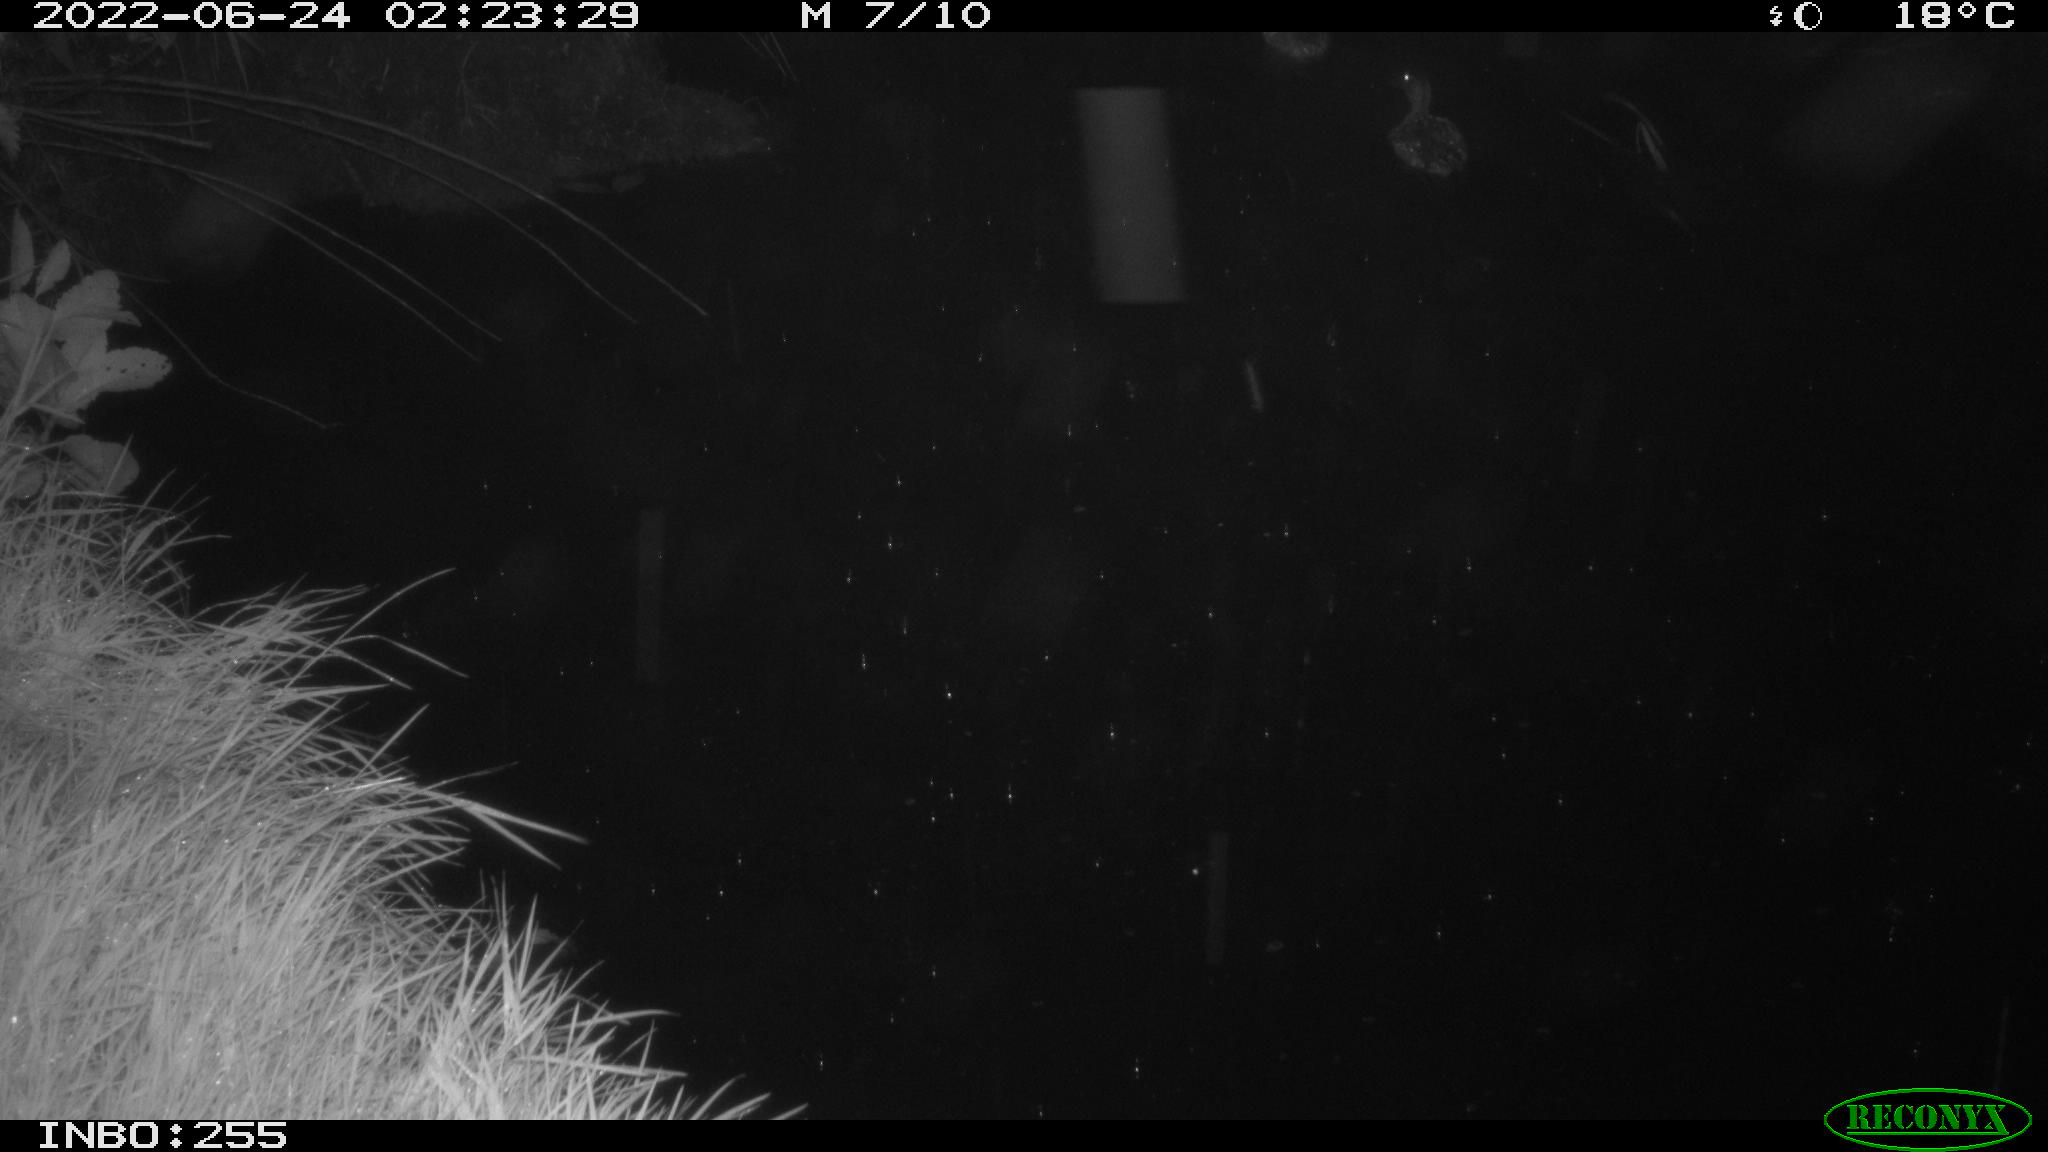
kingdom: Animalia
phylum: Chordata
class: Aves
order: Anseriformes
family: Anatidae
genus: Anas
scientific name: Anas platyrhynchos
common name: Mallard
